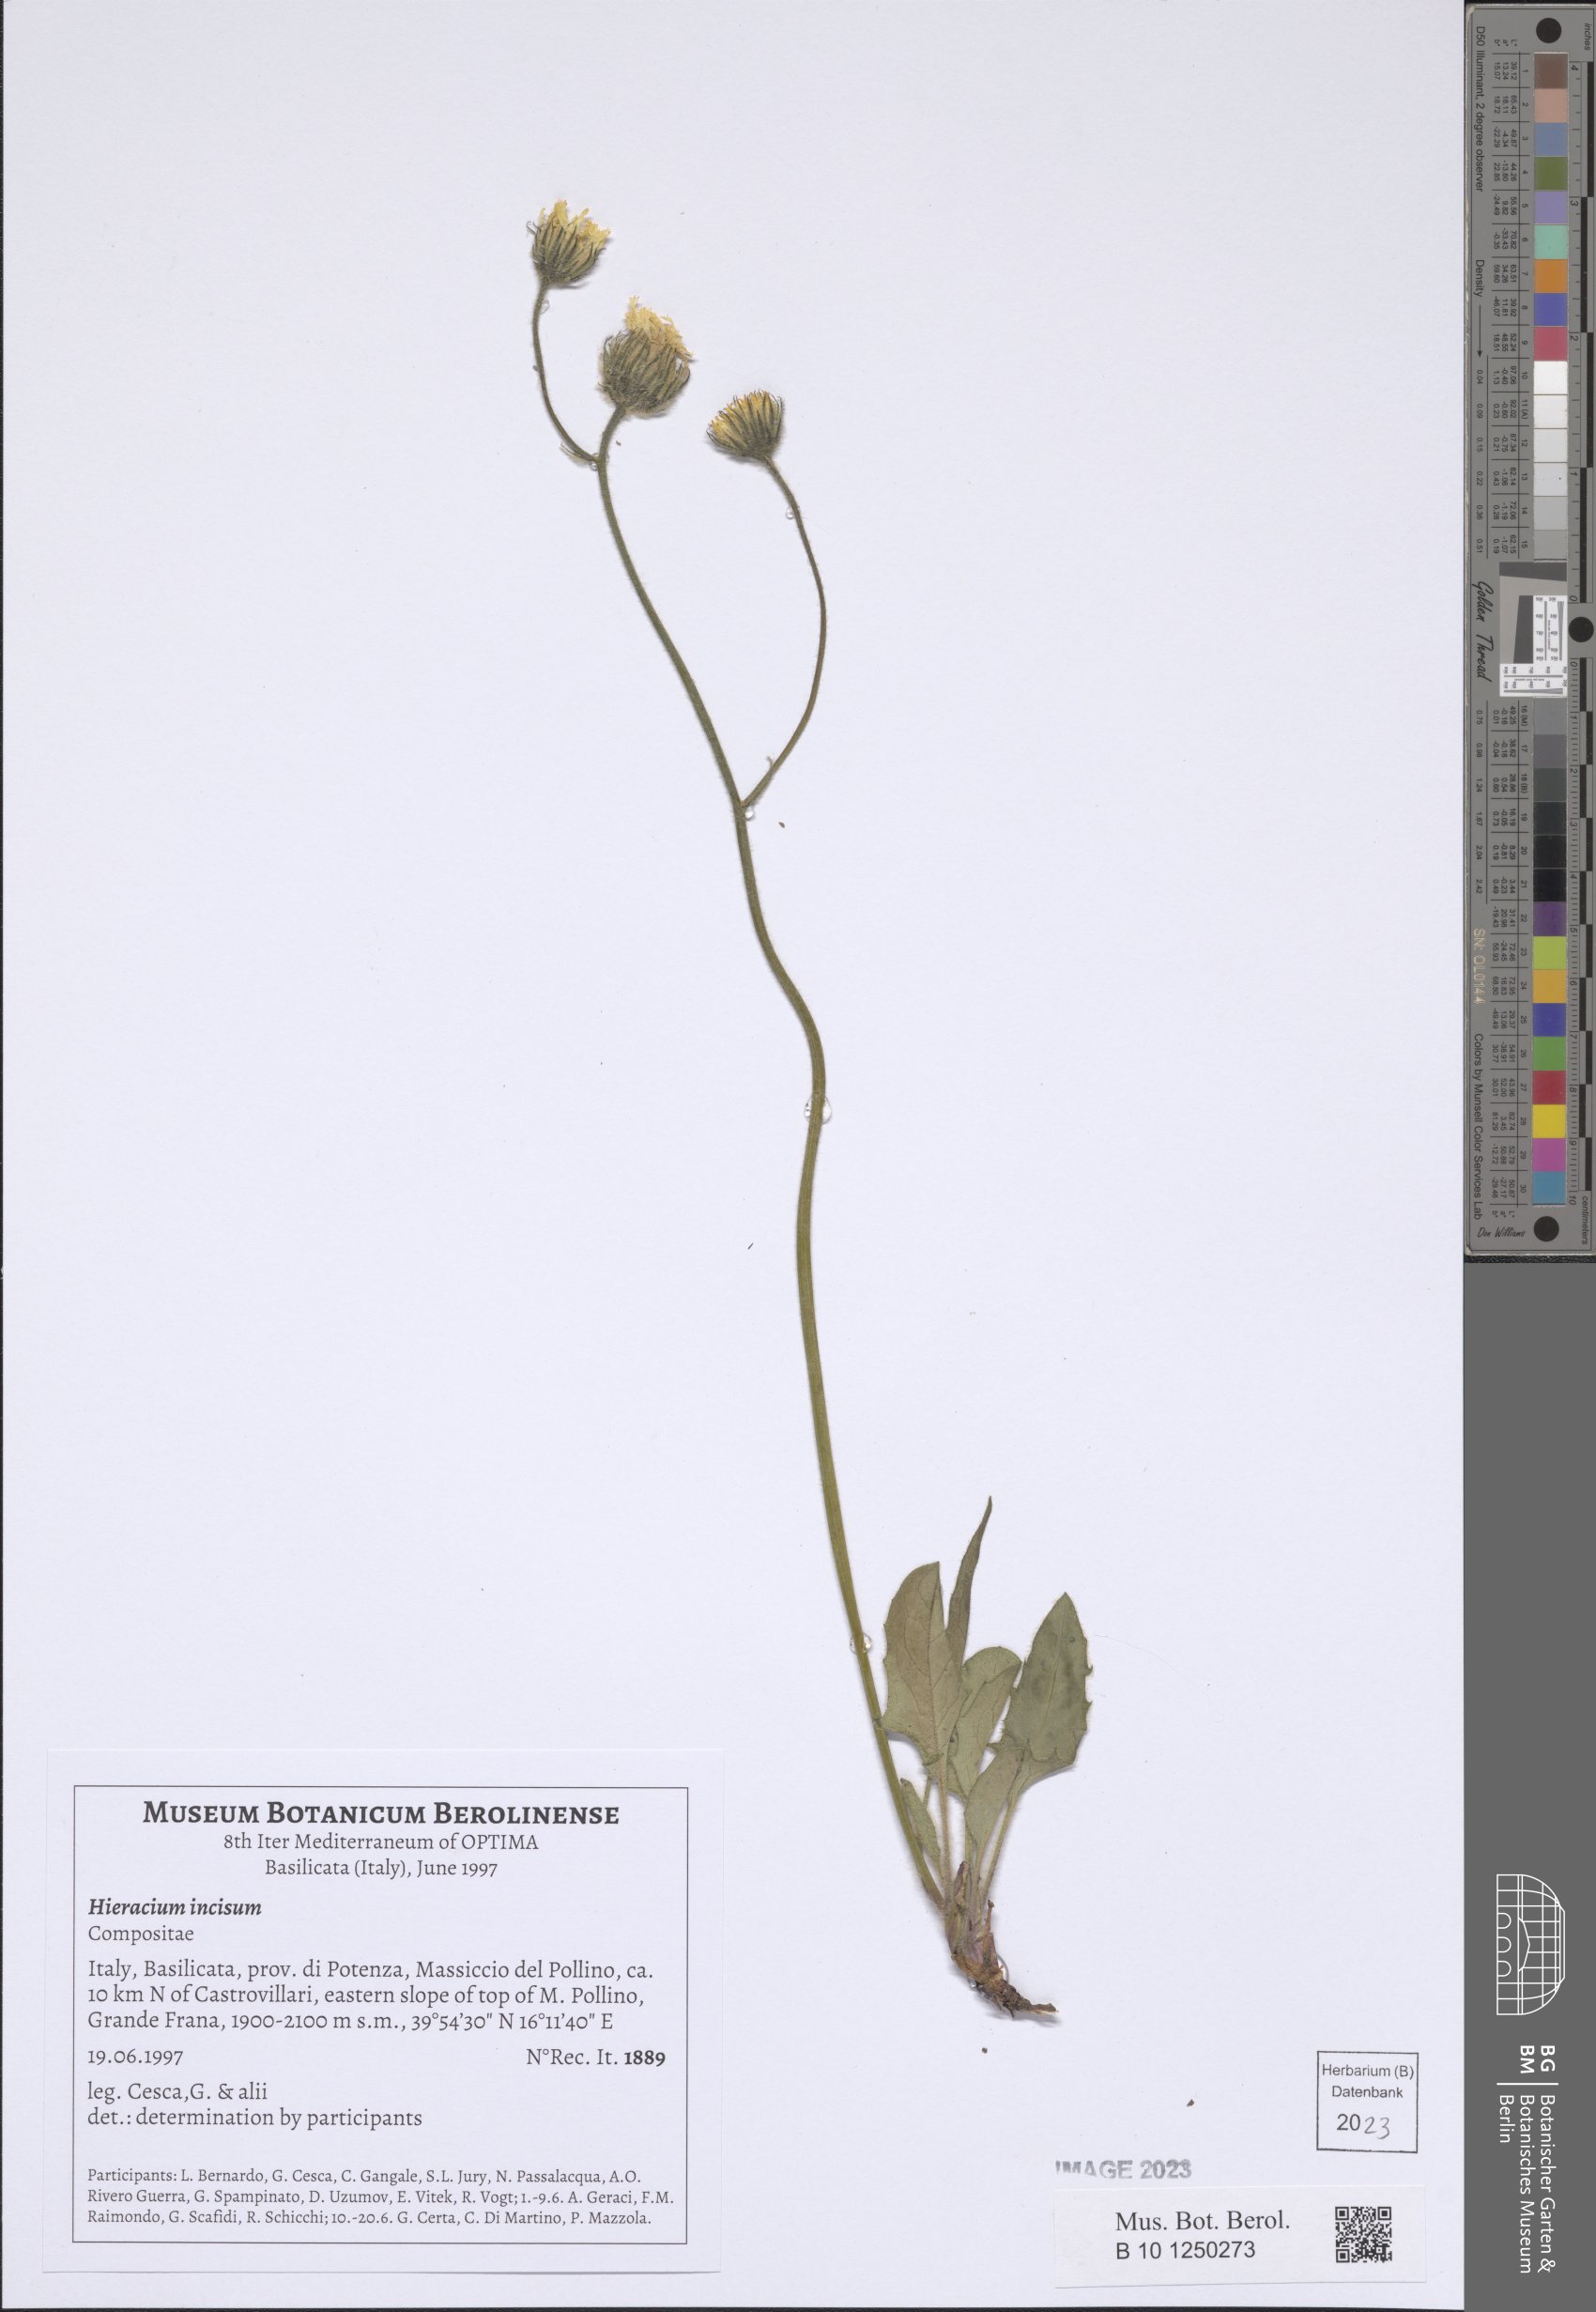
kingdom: Plantae
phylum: Tracheophyta
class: Magnoliopsida
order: Asterales
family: Asteraceae
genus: Hieracium
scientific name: Hieracium pallescens
